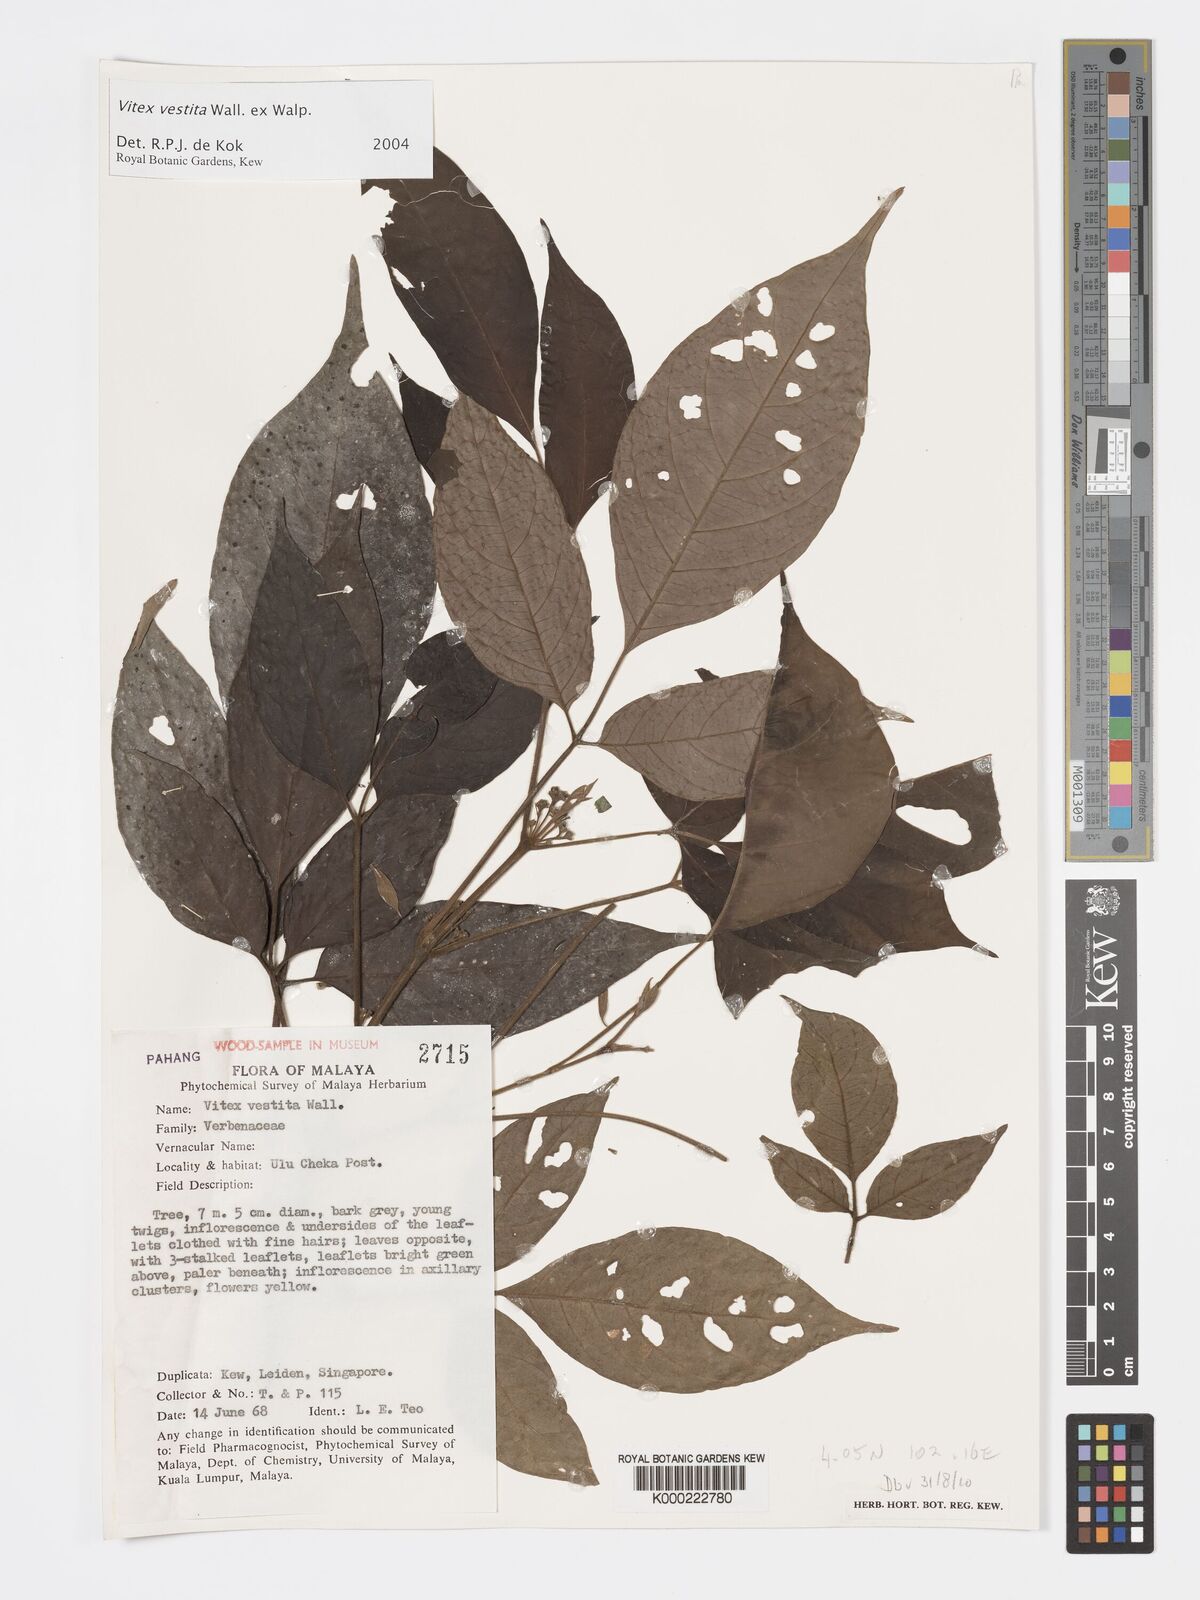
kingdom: Plantae
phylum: Tracheophyta
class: Magnoliopsida
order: Lamiales
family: Lamiaceae
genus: Vitex
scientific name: Vitex vestita
